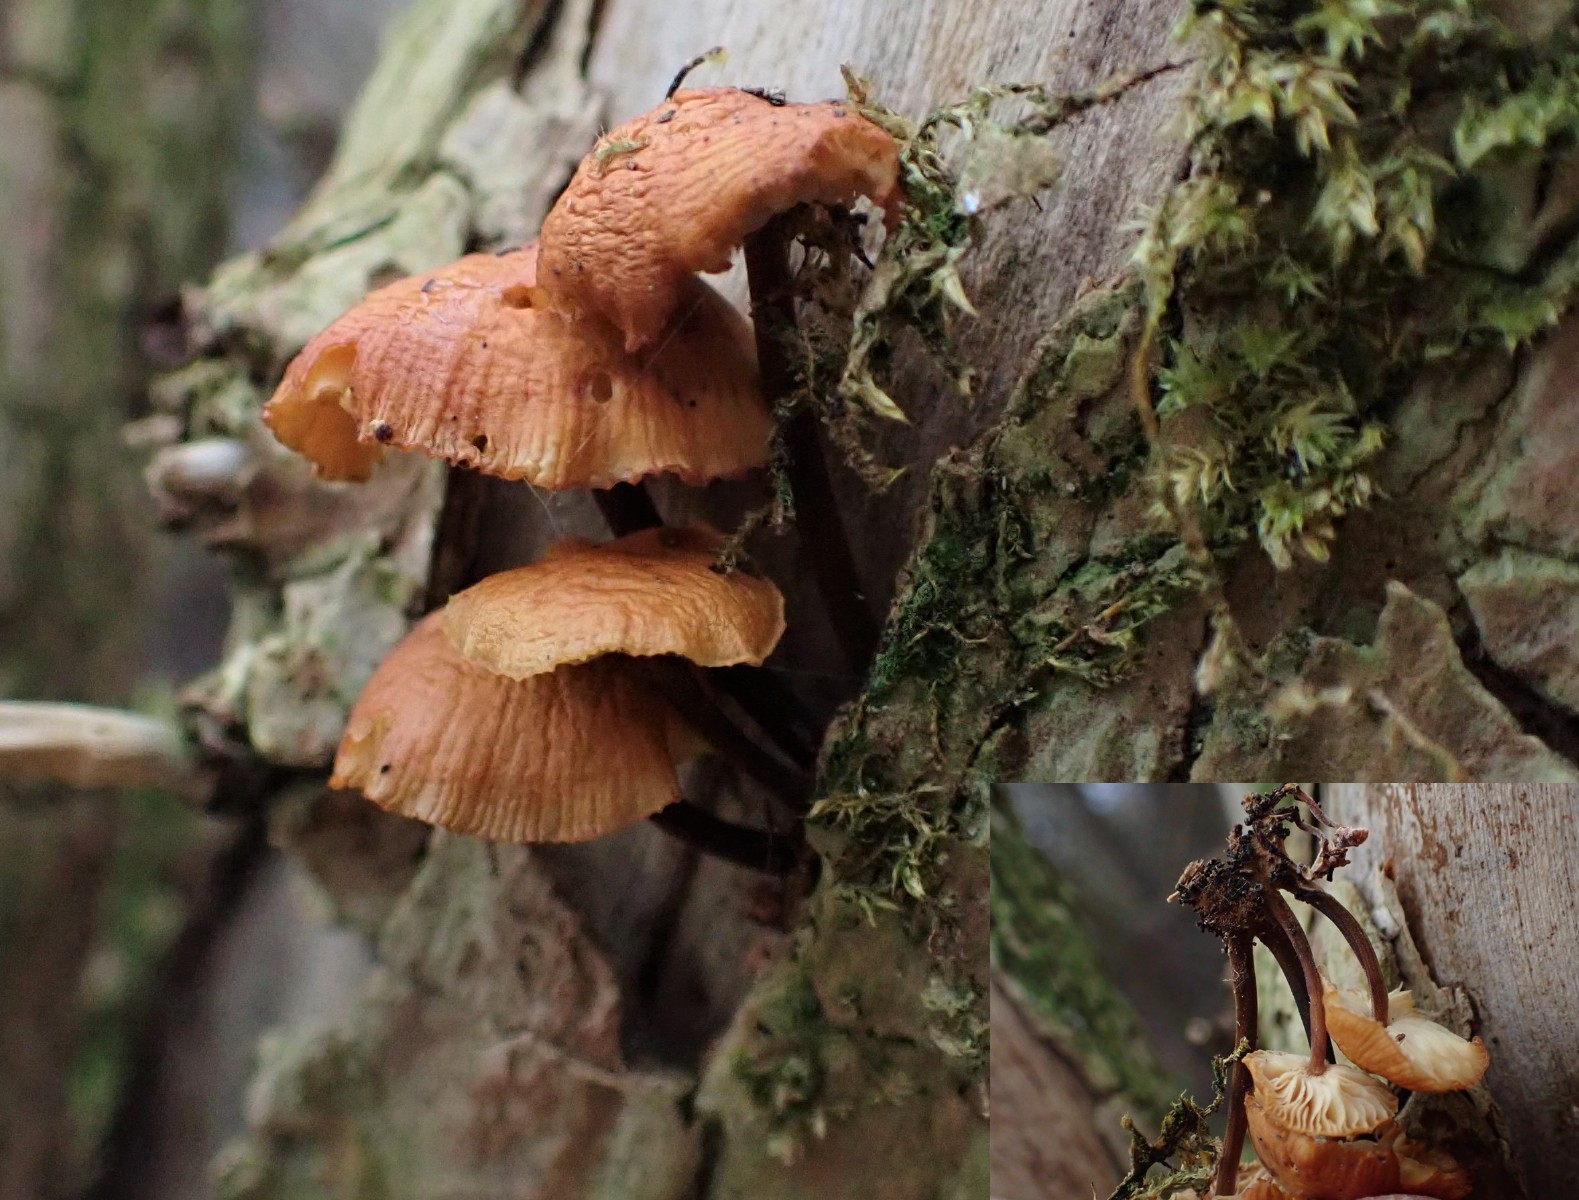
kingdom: Fungi
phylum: Basidiomycota
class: Agaricomycetes
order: Agaricales
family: Physalacriaceae
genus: Flammulina
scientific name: Flammulina velutipes
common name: gul fløjlsfod
